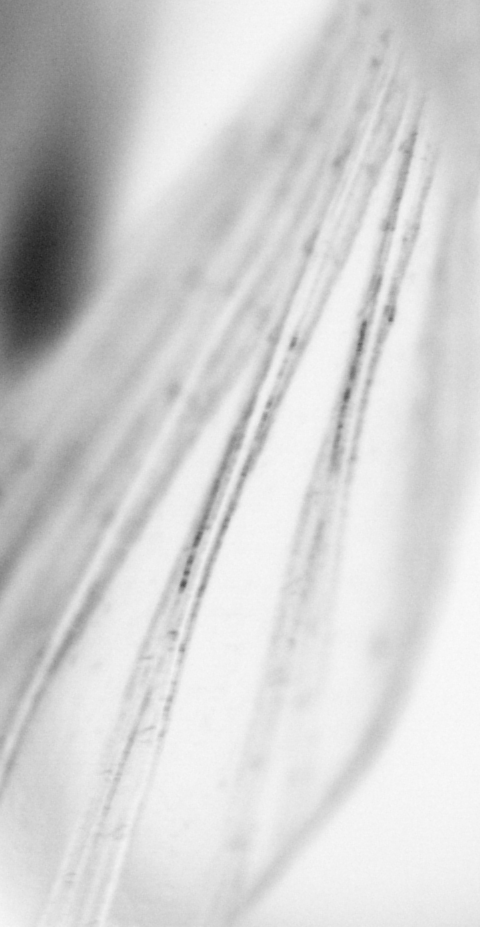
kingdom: Animalia
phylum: Chordata
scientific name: Chordata
